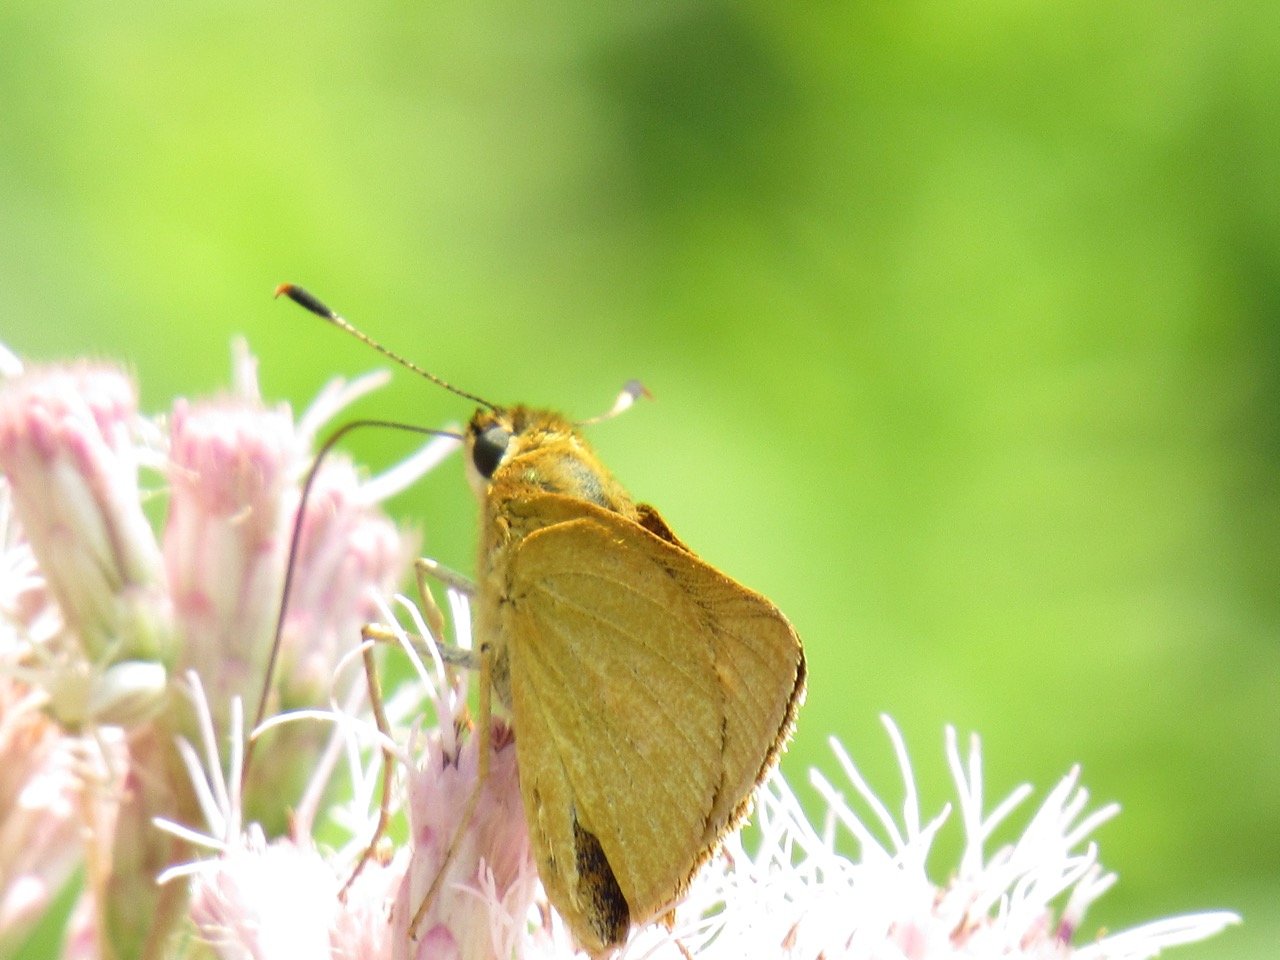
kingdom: Animalia
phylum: Arthropoda
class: Insecta
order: Lepidoptera
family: Hesperiidae
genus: Atrytone
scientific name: Atrytone delaware
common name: Delaware Skipper
